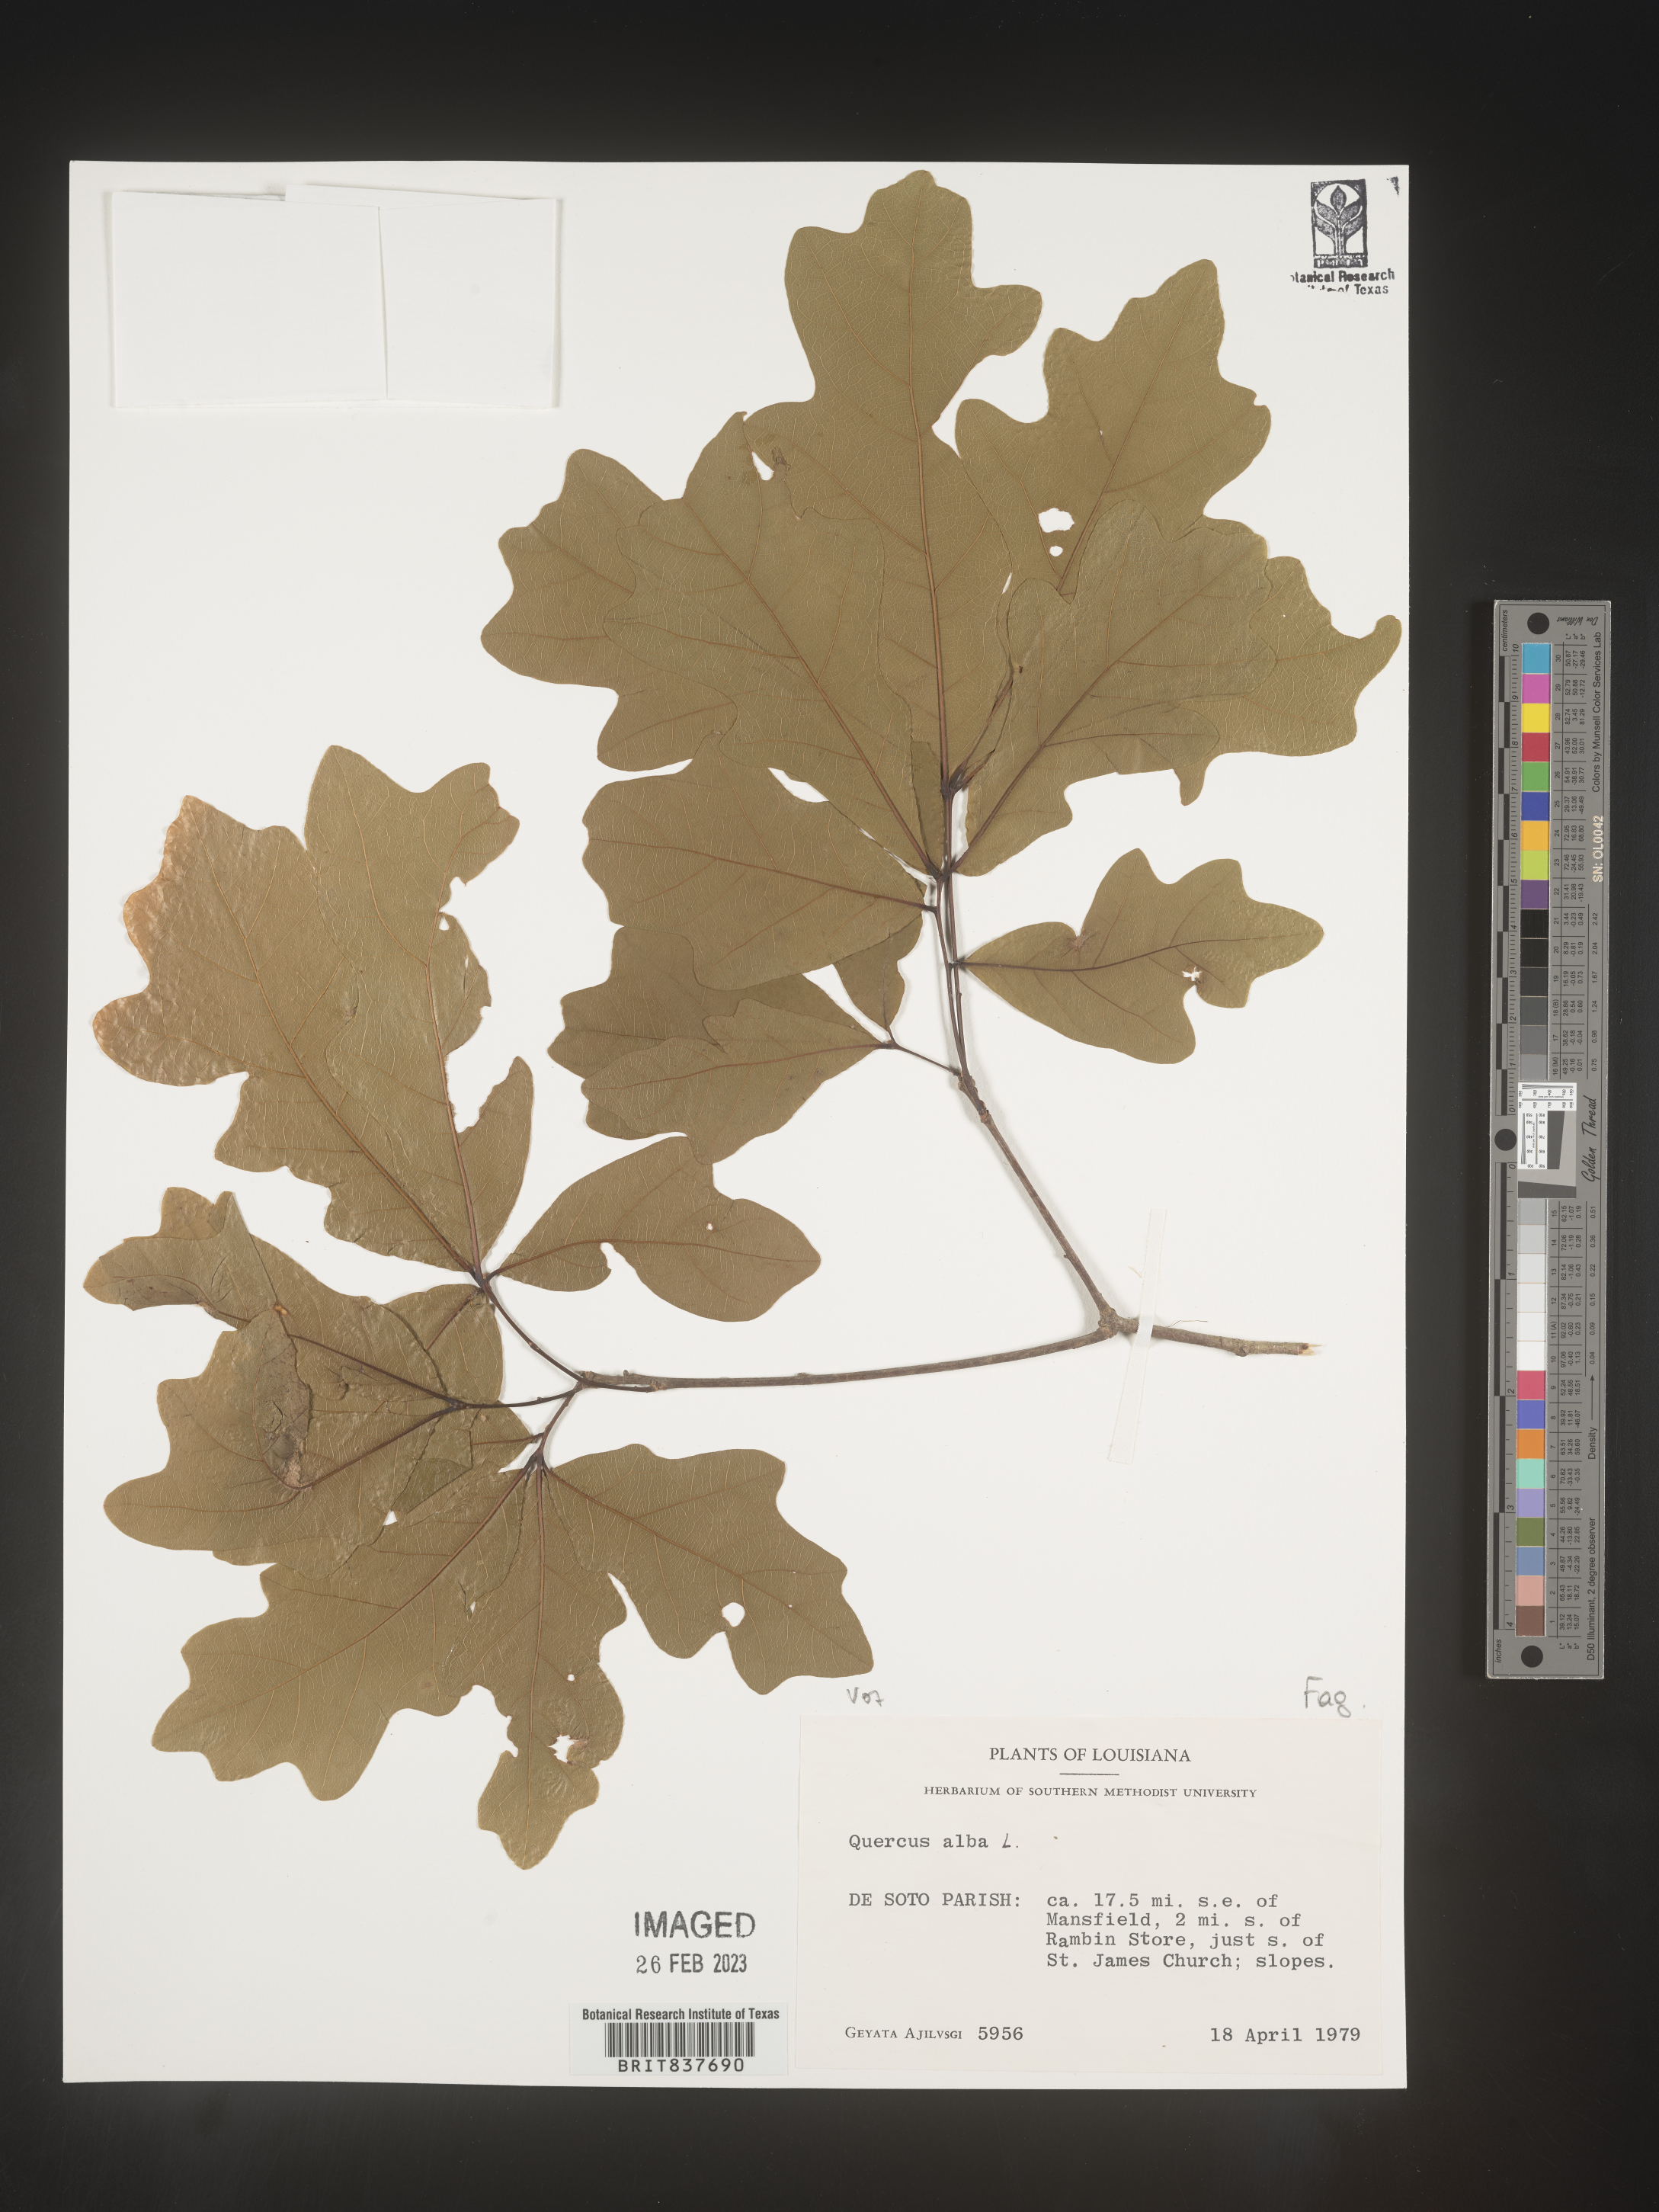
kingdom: Plantae
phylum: Tracheophyta
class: Magnoliopsida
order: Fagales
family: Fagaceae
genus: Quercus
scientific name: Quercus alba
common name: White oak
